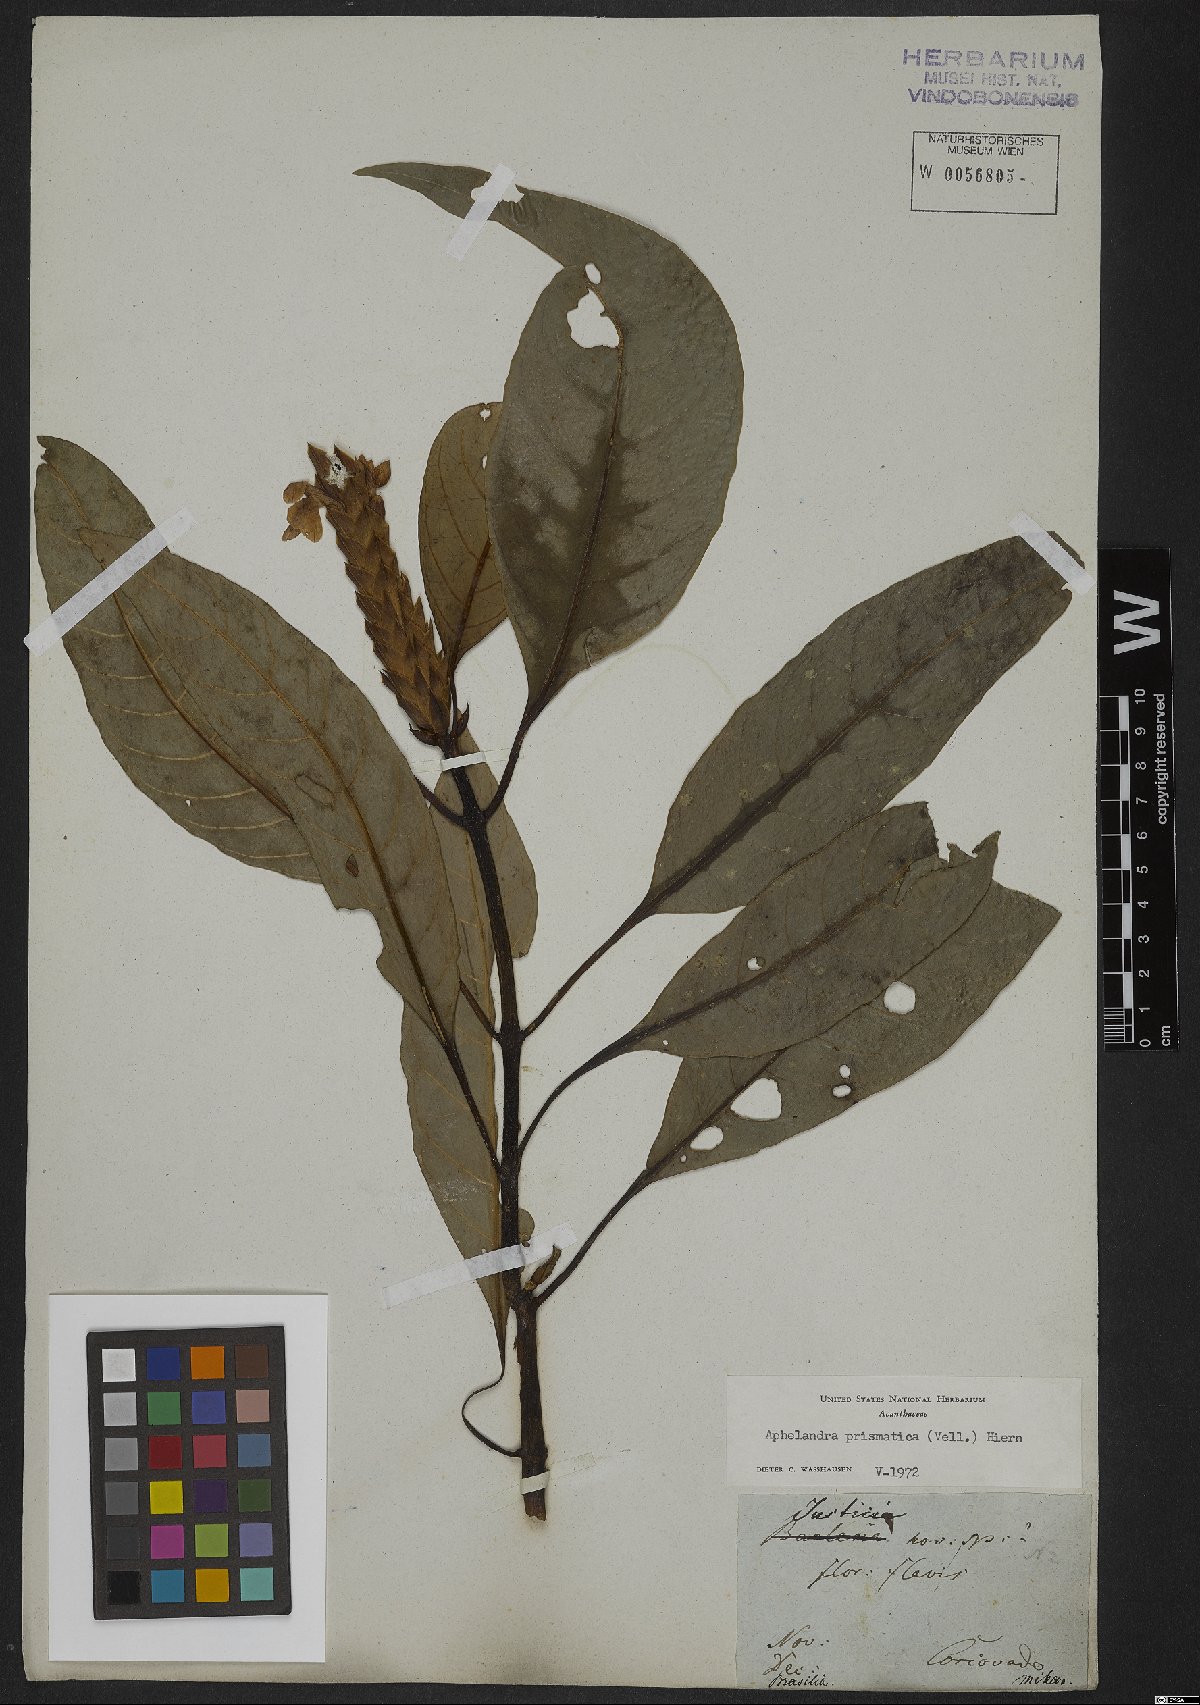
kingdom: Plantae
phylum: Tracheophyta
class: Magnoliopsida
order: Lamiales
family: Acanthaceae
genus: Aphelandra
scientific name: Aphelandra prismatica
